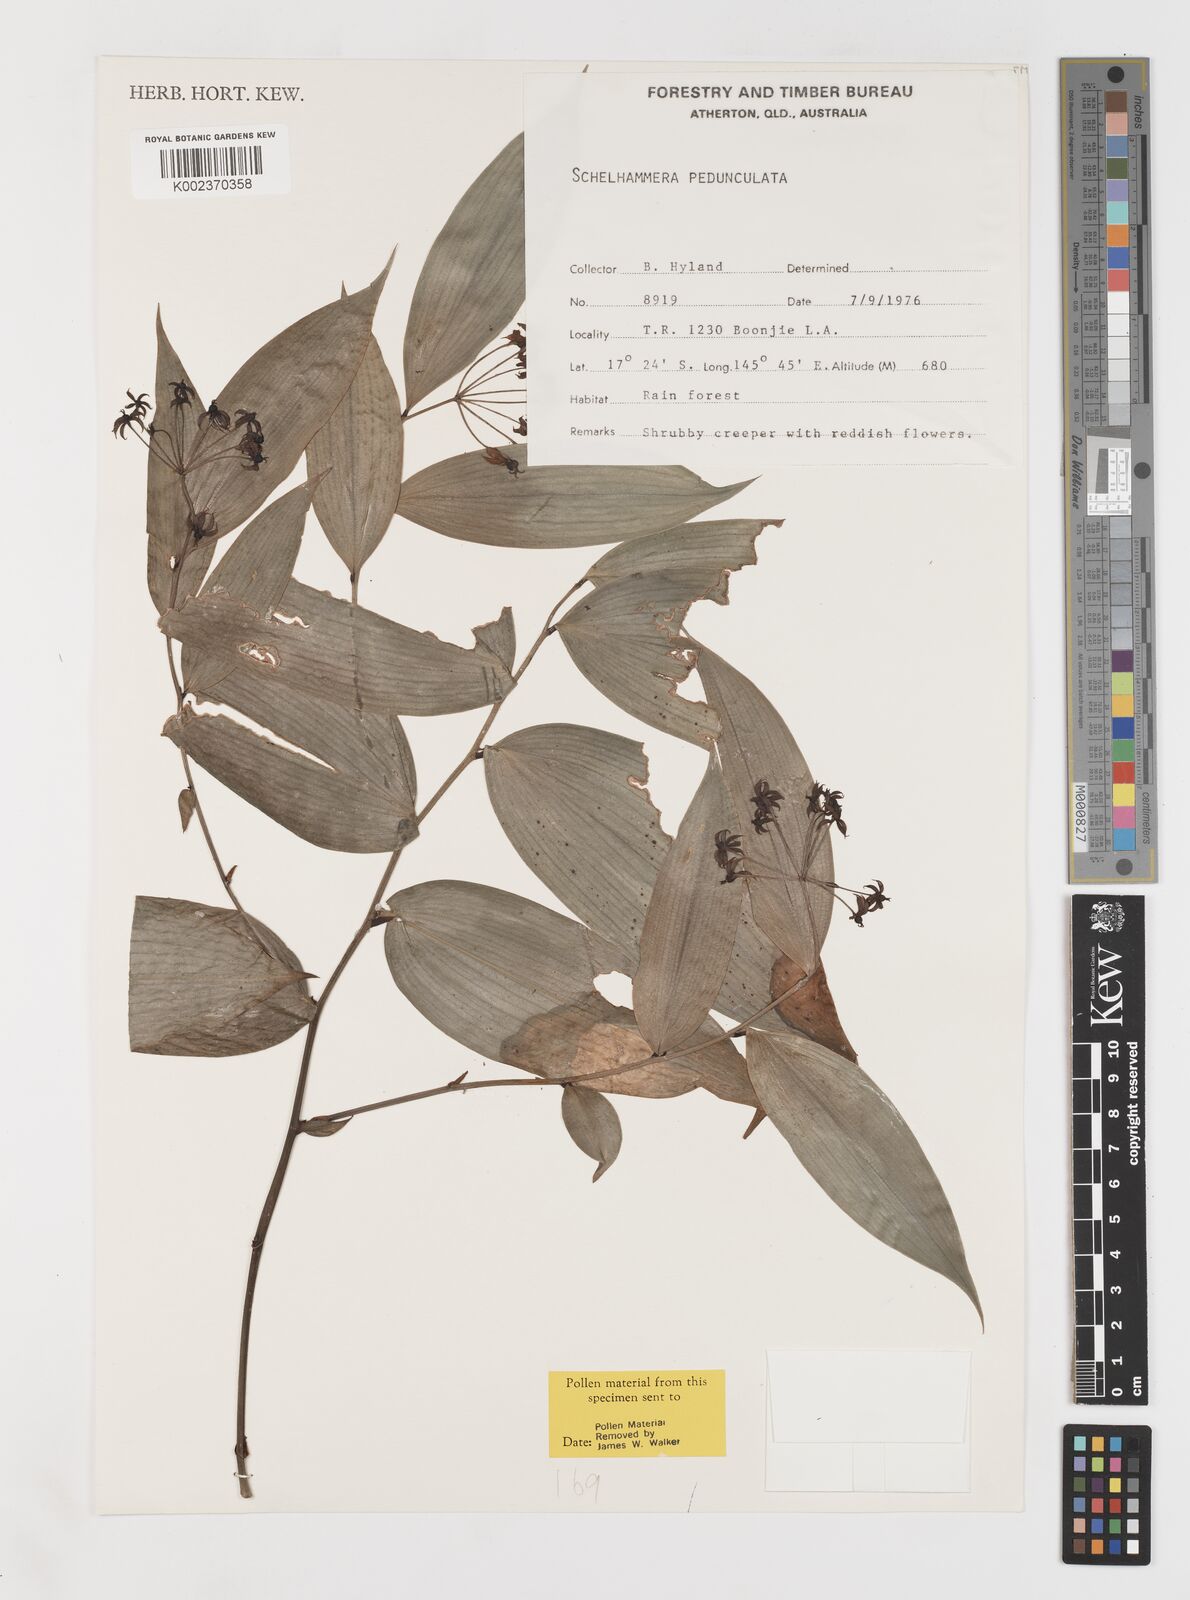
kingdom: Plantae
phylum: Tracheophyta
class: Liliopsida
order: Liliales
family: Colchicaceae
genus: Kuntheria
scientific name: Kuntheria pedunculata
